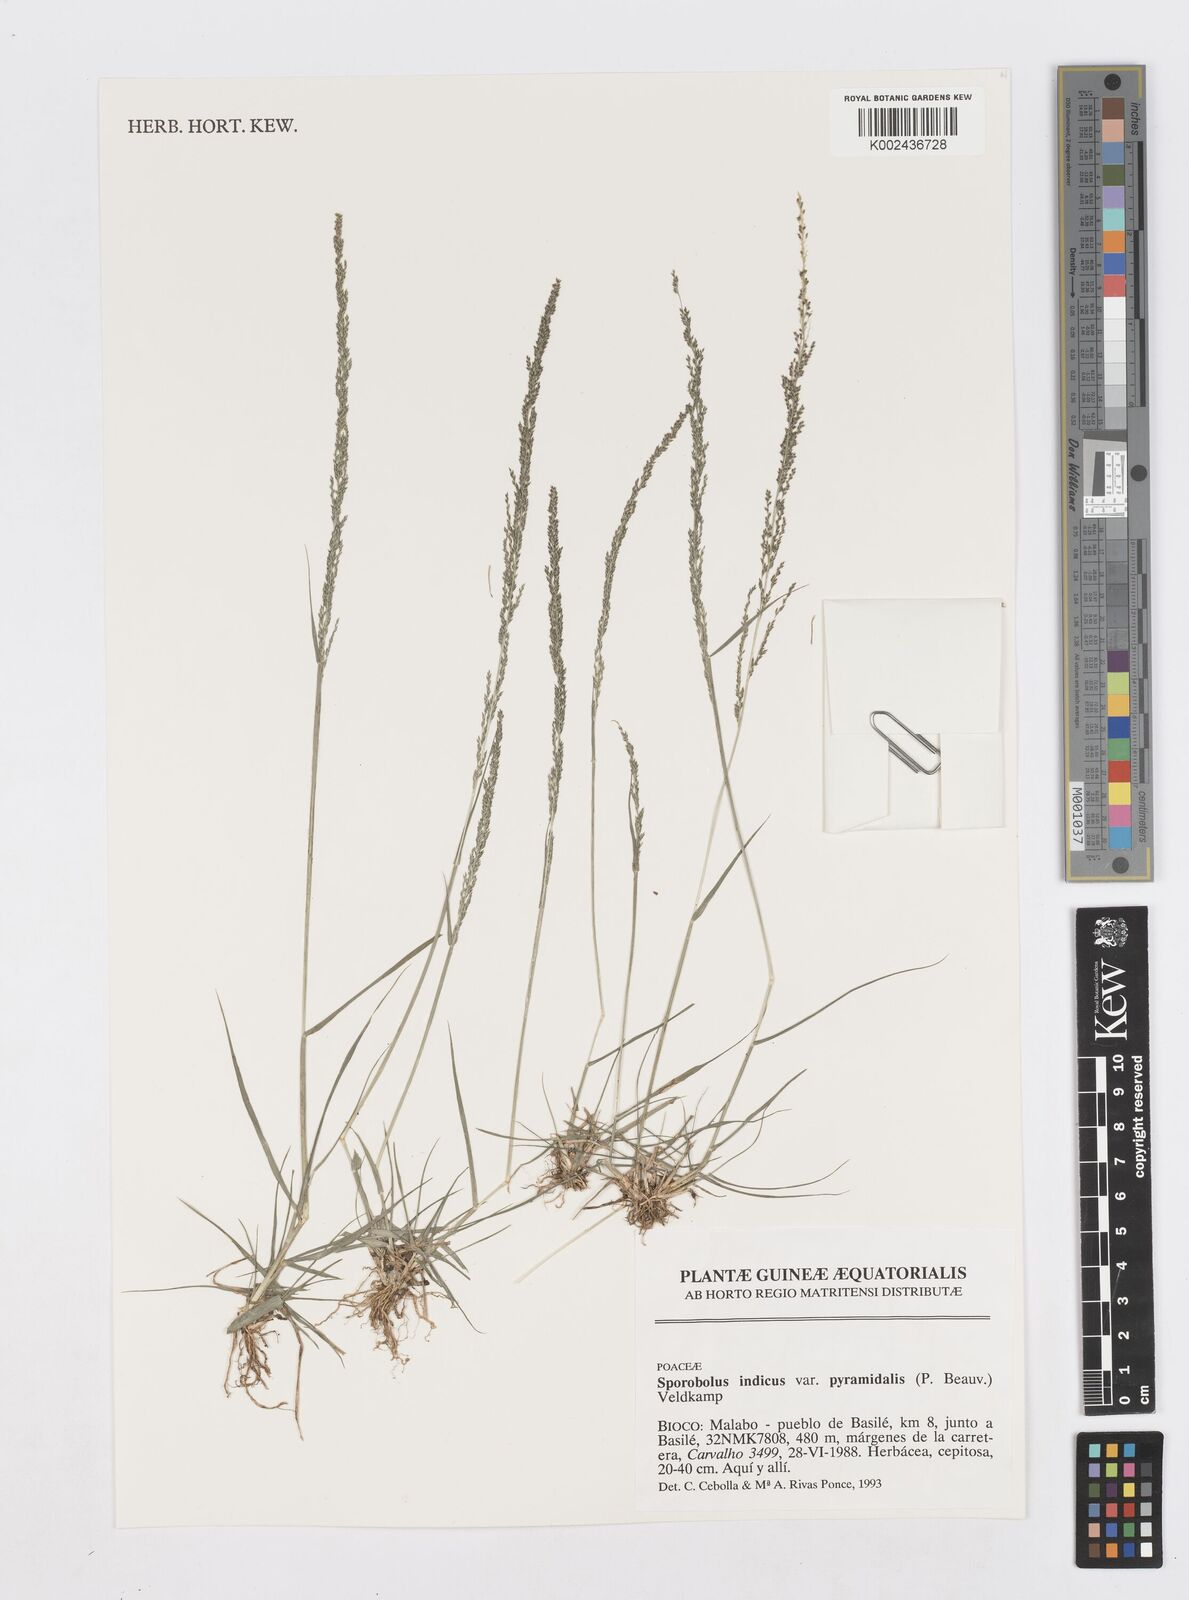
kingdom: Plantae
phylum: Tracheophyta
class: Liliopsida
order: Poales
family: Poaceae
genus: Sporobolus
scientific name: Sporobolus pyramidalis
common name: West indian dropseed
